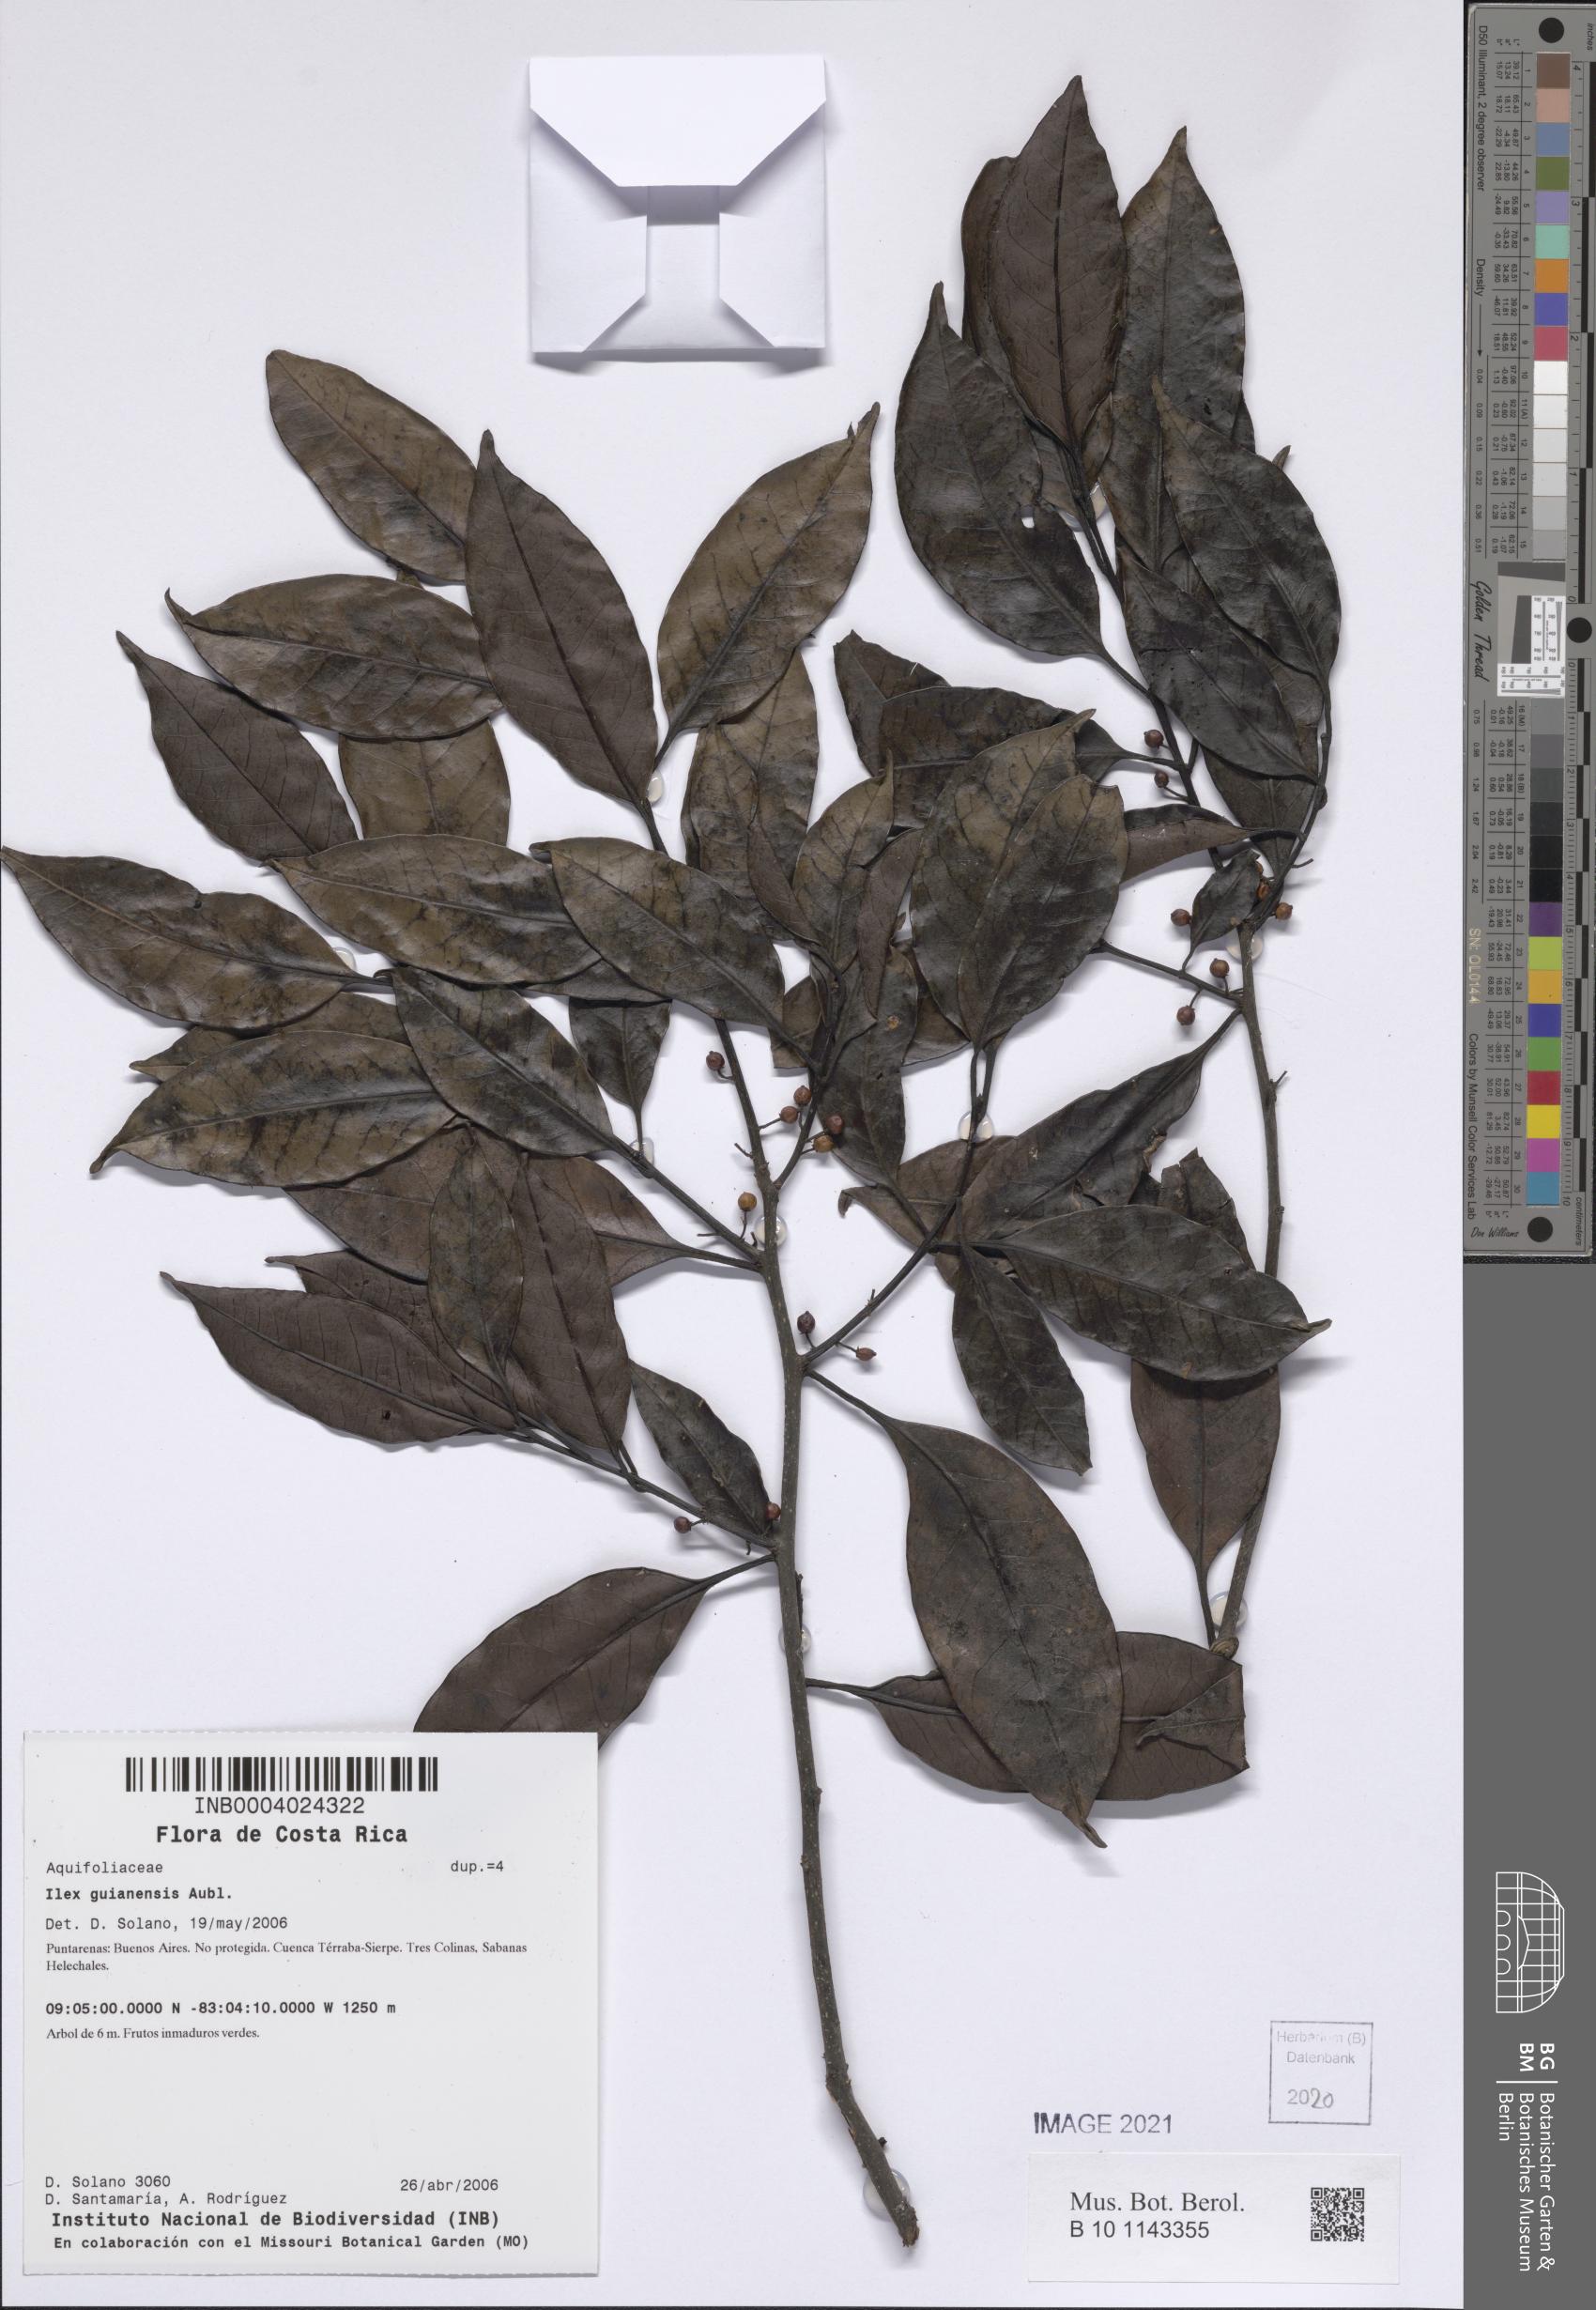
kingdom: Plantae
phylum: Tracheophyta
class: Magnoliopsida
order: Aquifoliales
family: Aquifoliaceae
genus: Ilex
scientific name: Ilex guianensis
